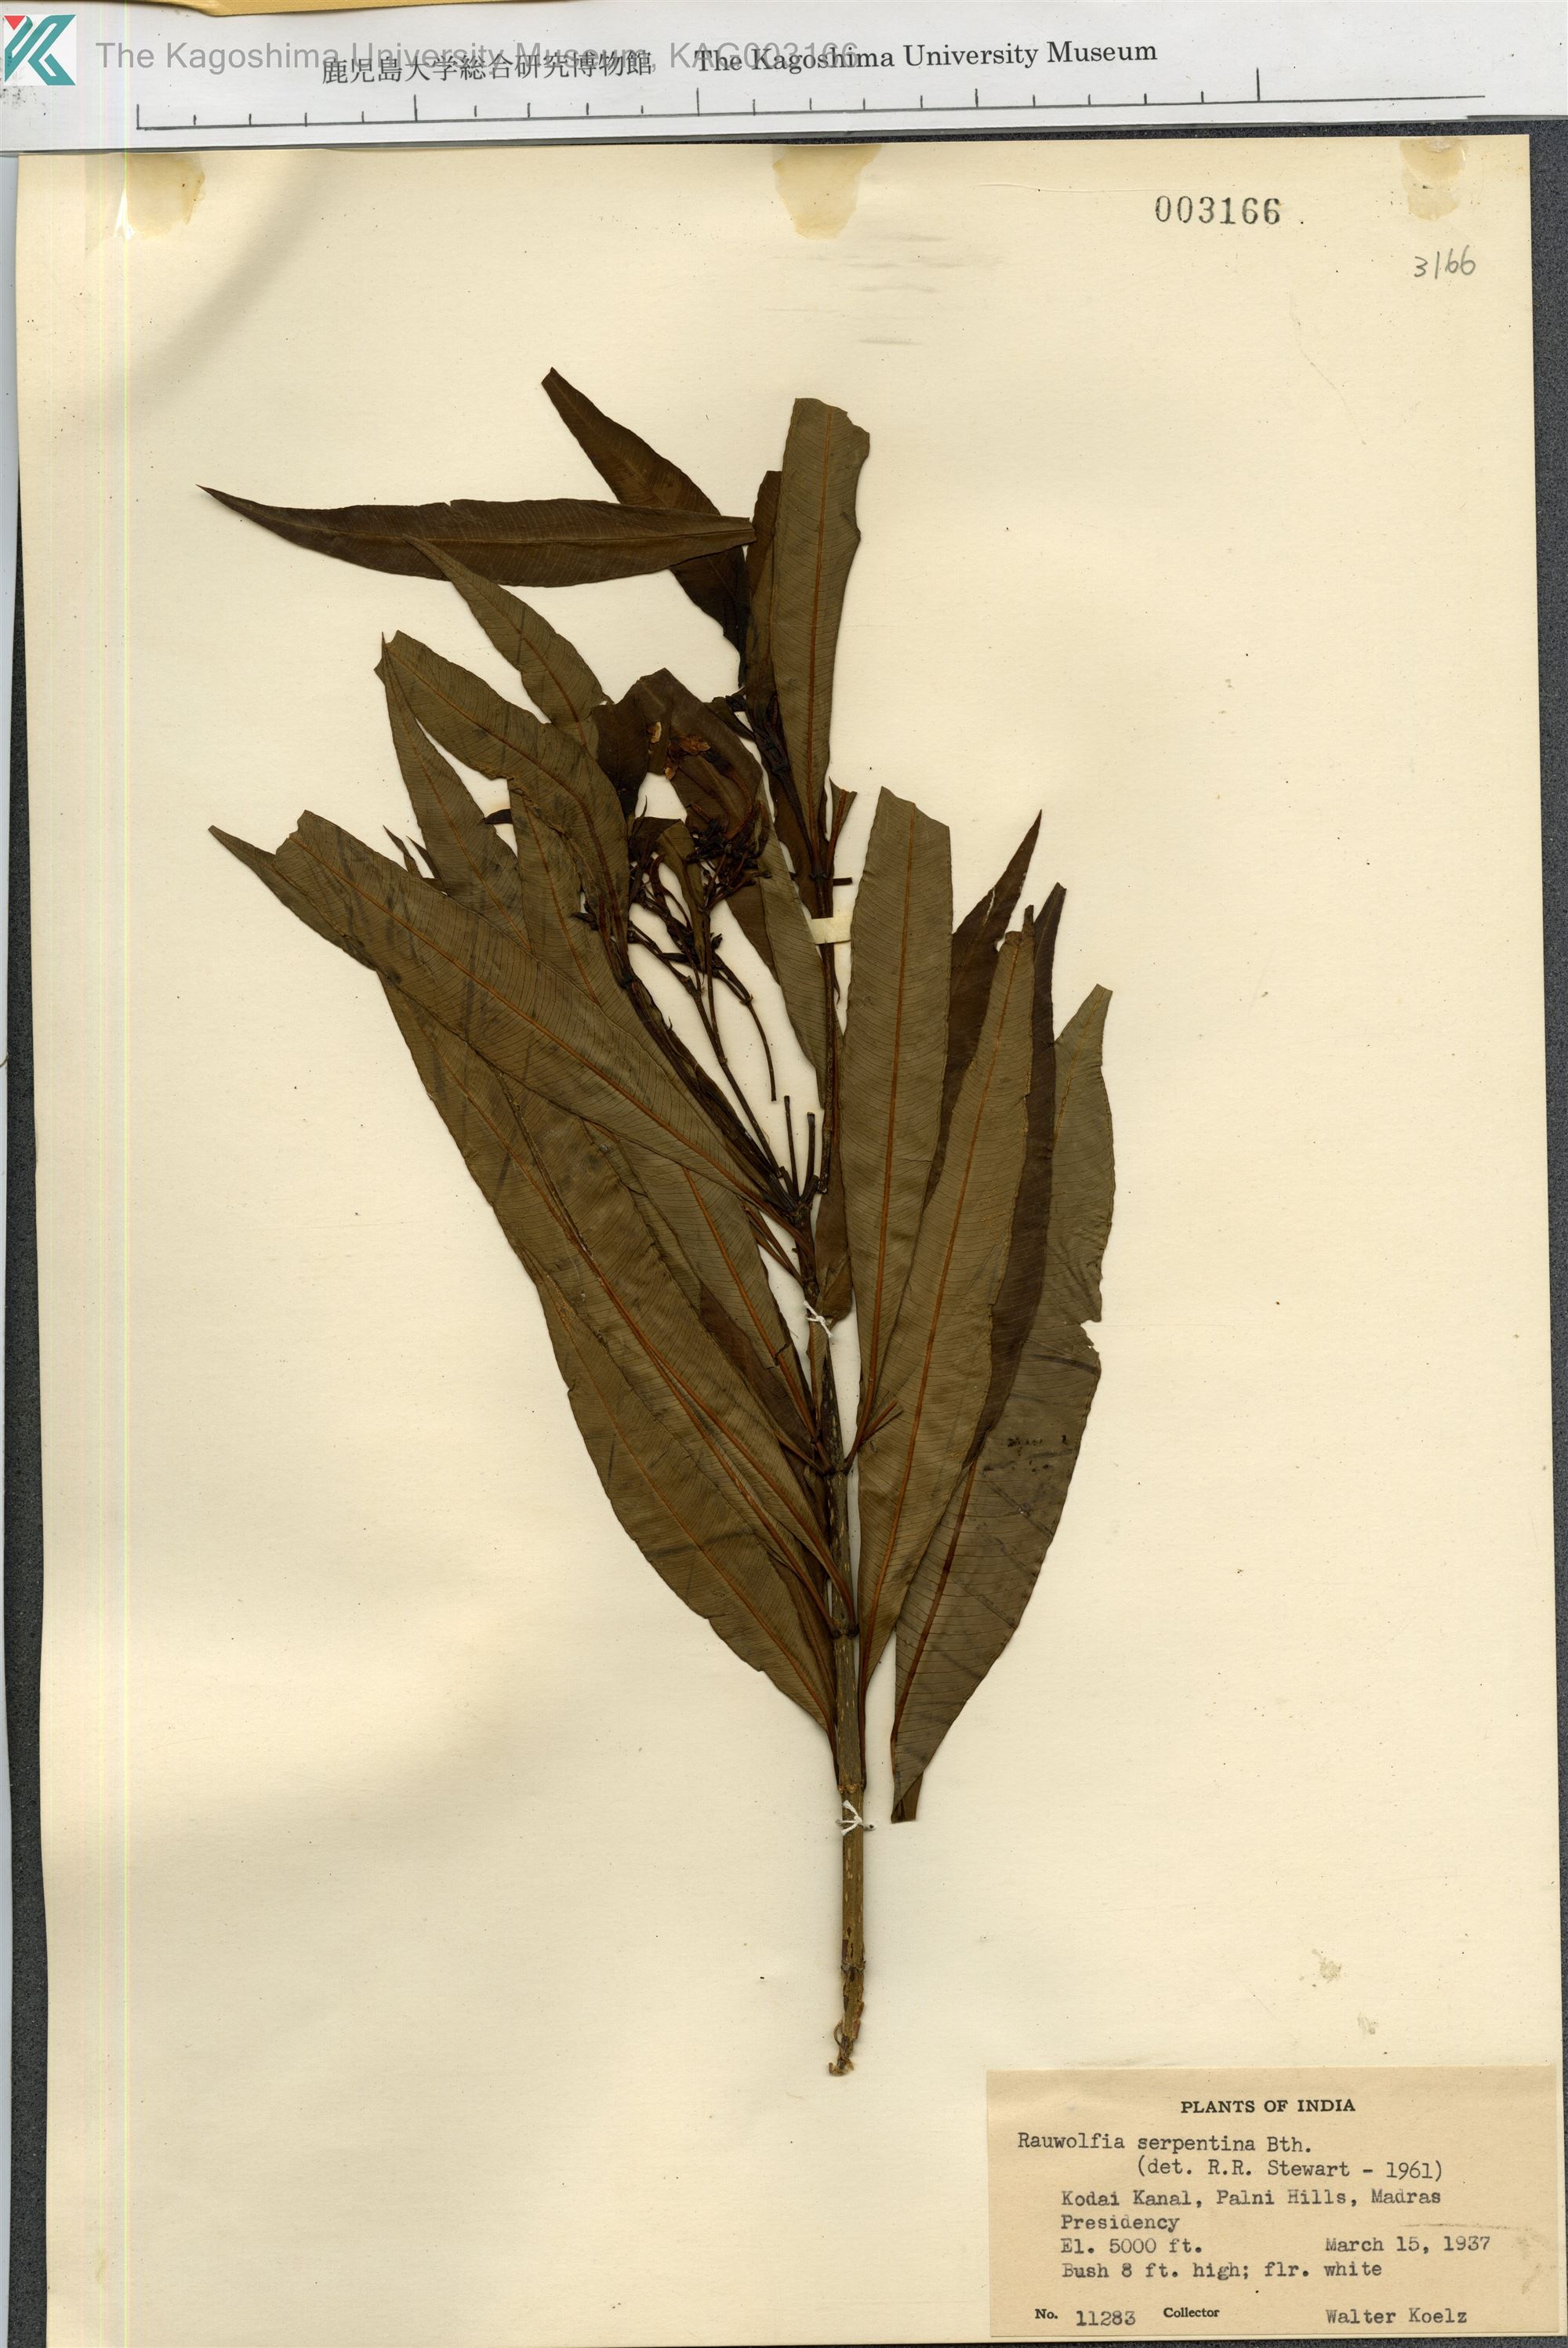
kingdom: Plantae
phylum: Tracheophyta
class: Magnoliopsida
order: Gentianales
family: Apocynaceae
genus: Rauvolfia
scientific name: Rauvolfia serpentina
